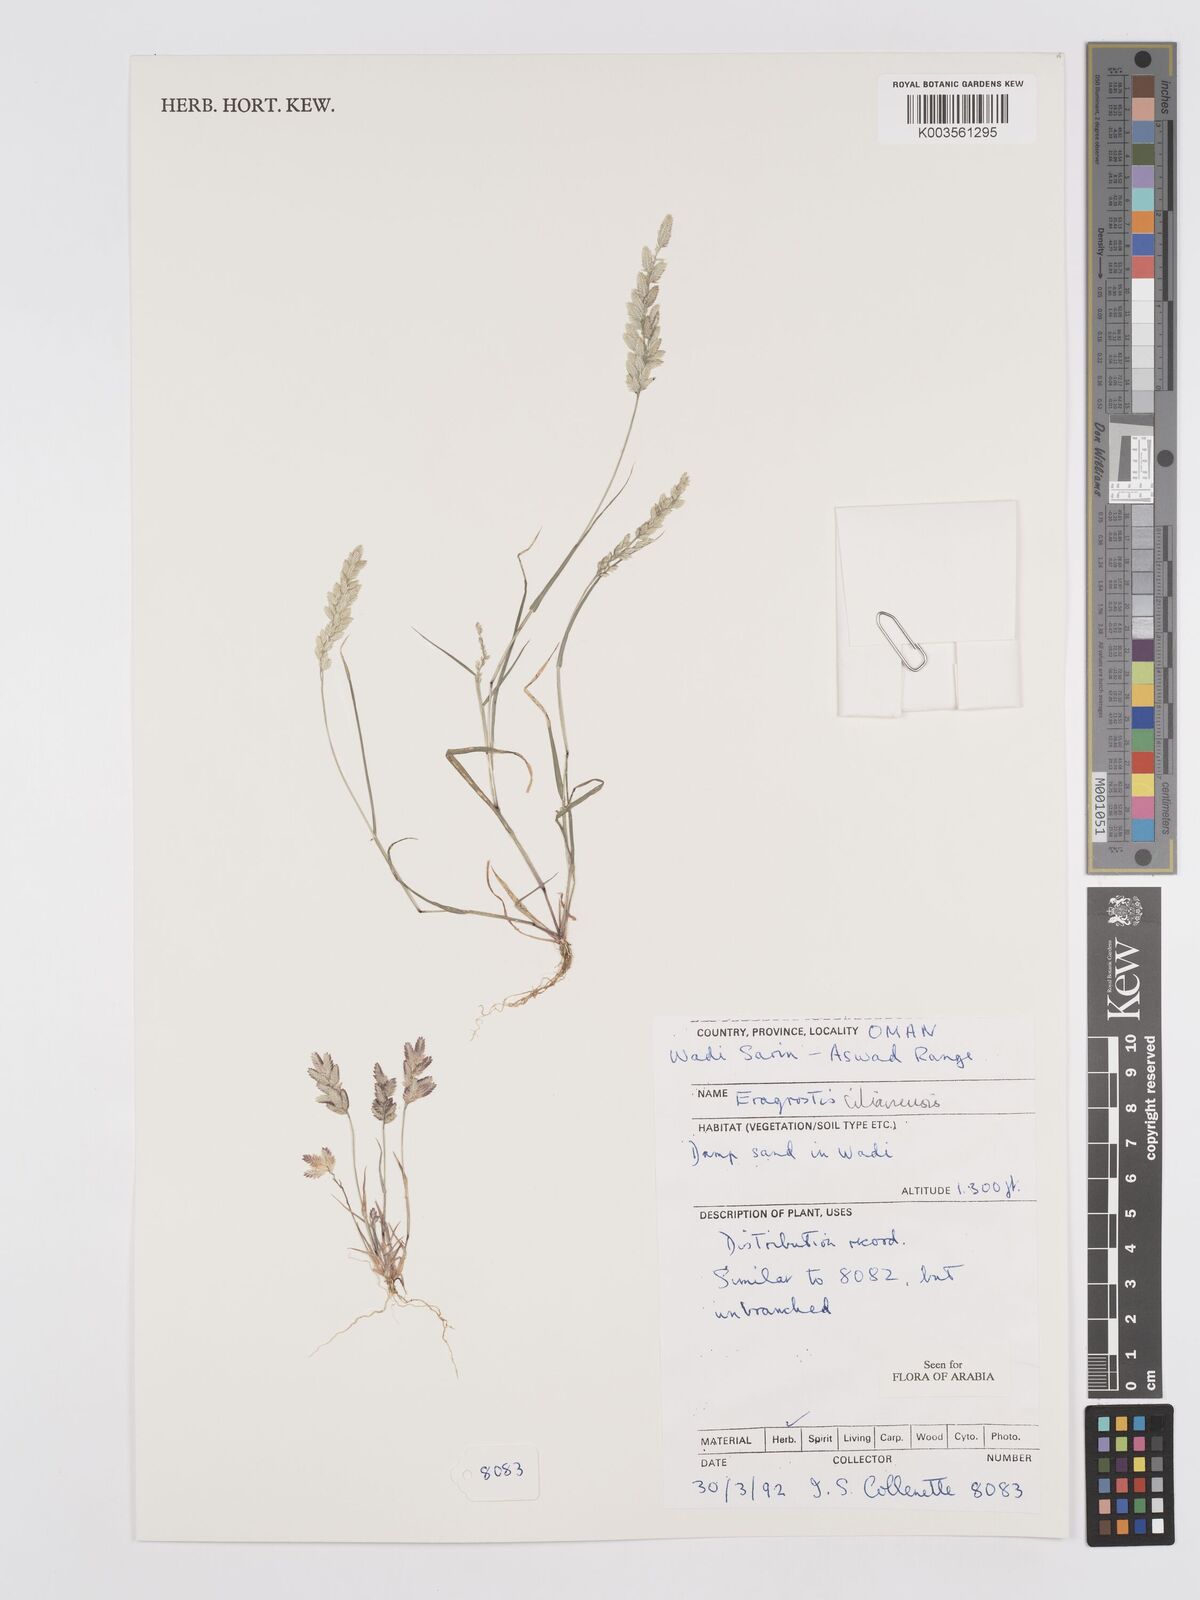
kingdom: Plantae
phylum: Tracheophyta
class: Liliopsida
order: Poales
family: Poaceae
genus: Eragrostis
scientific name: Eragrostis cilianensis
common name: Stinkgrass
